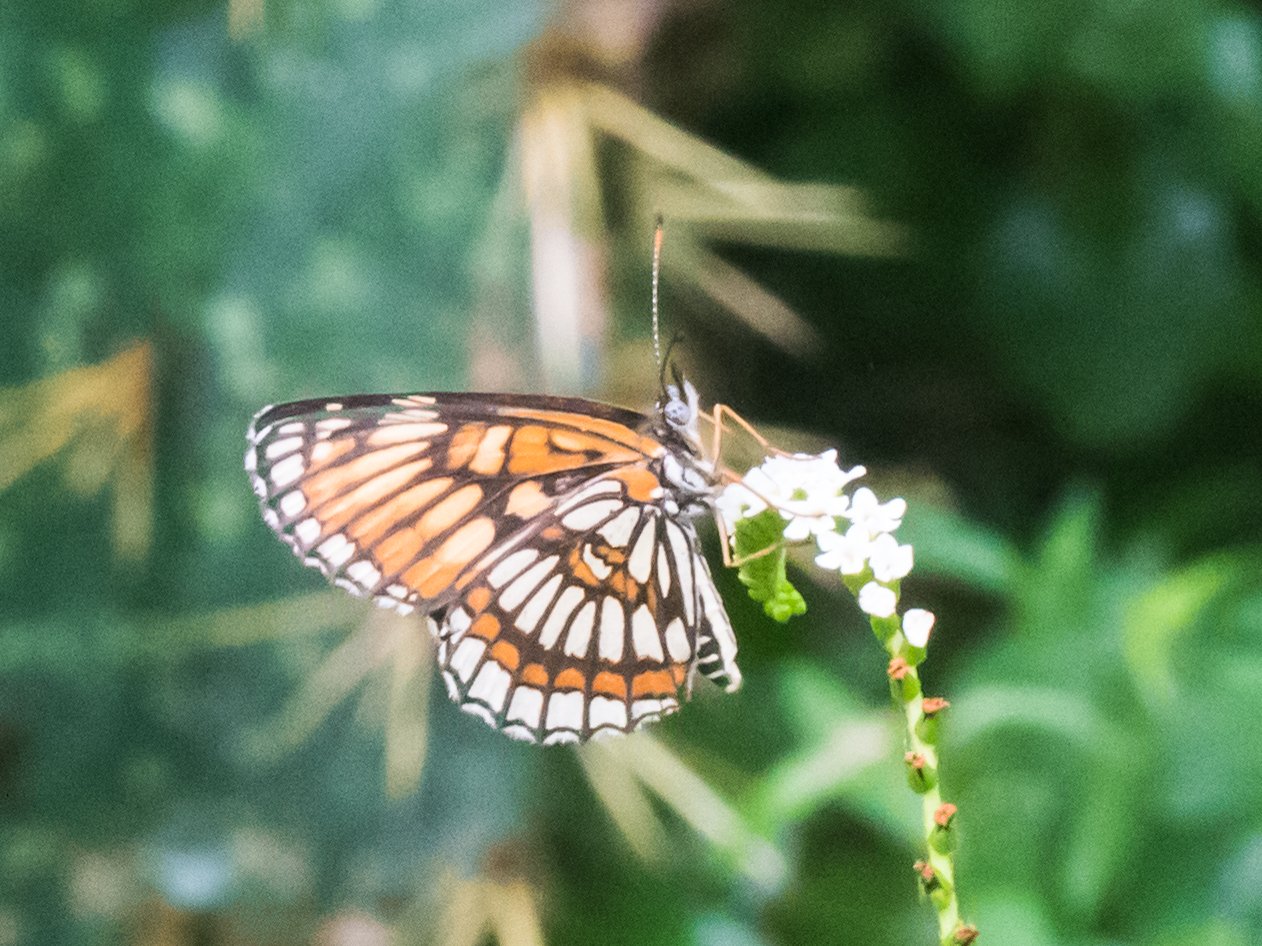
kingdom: Animalia
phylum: Arthropoda
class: Insecta
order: Lepidoptera
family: Nymphalidae
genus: Thessalia
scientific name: Thessalia theona
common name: Theona Checkerspot
